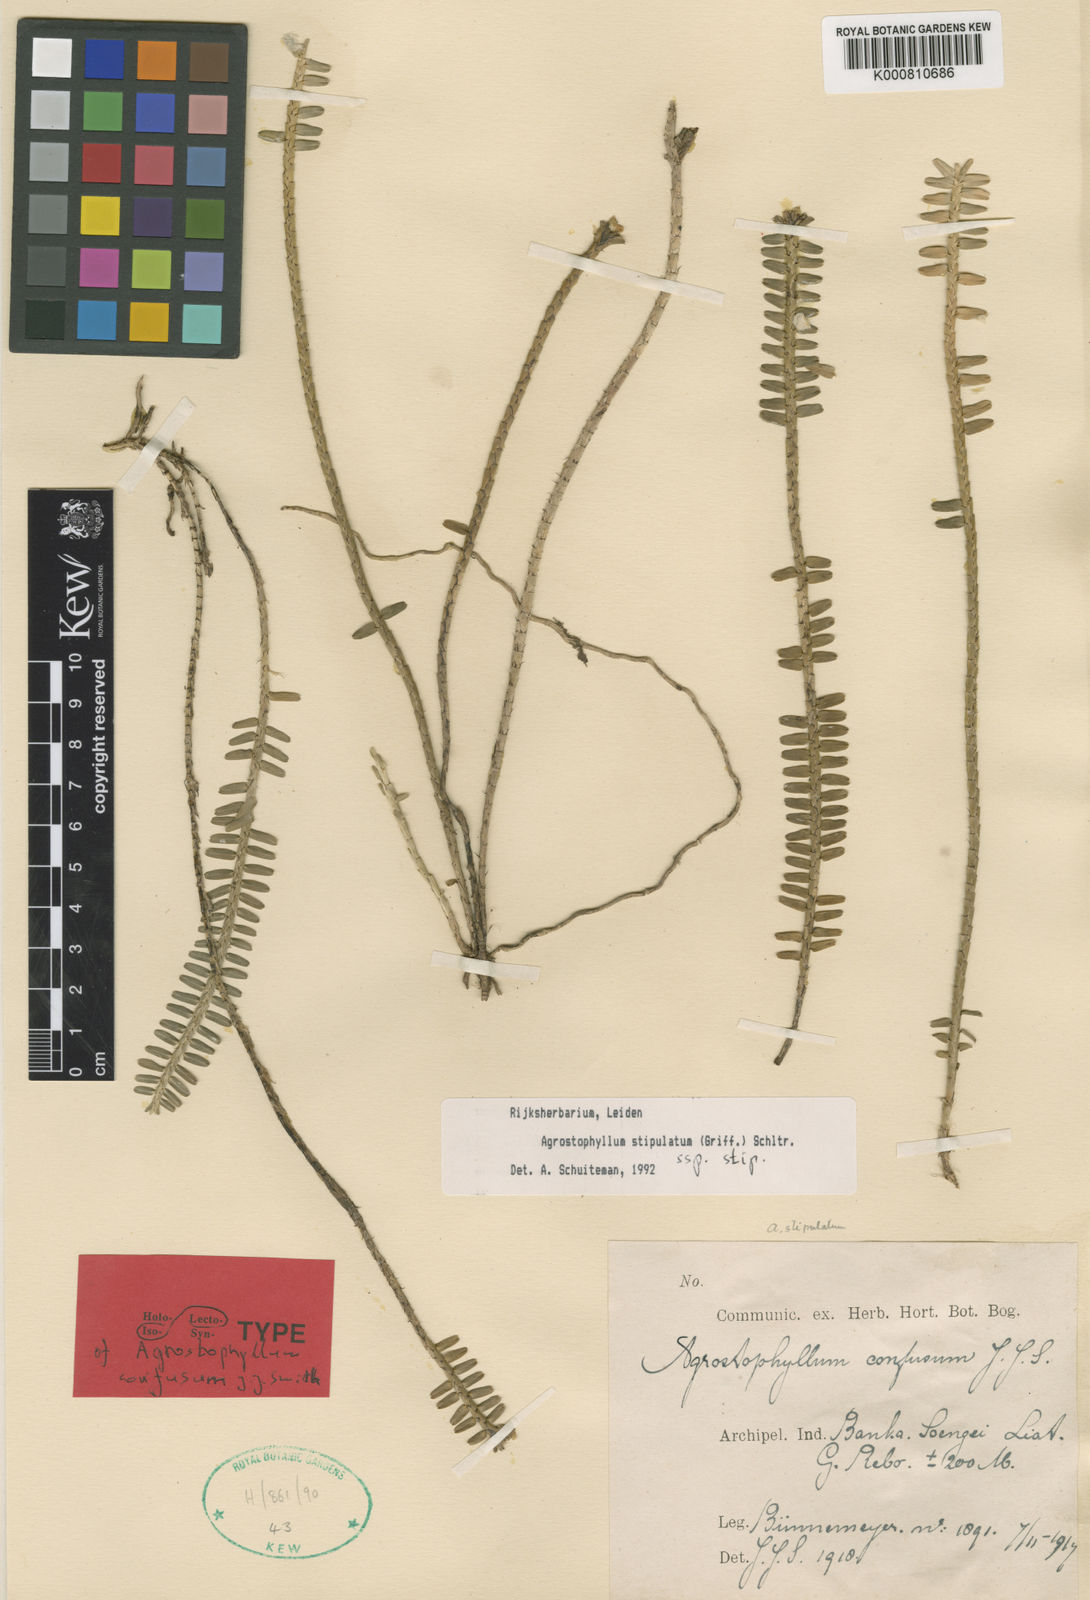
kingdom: Plantae
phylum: Tracheophyta
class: Liliopsida
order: Asparagales
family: Orchidaceae
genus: Agrostophyllum
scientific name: Agrostophyllum stipulatum
